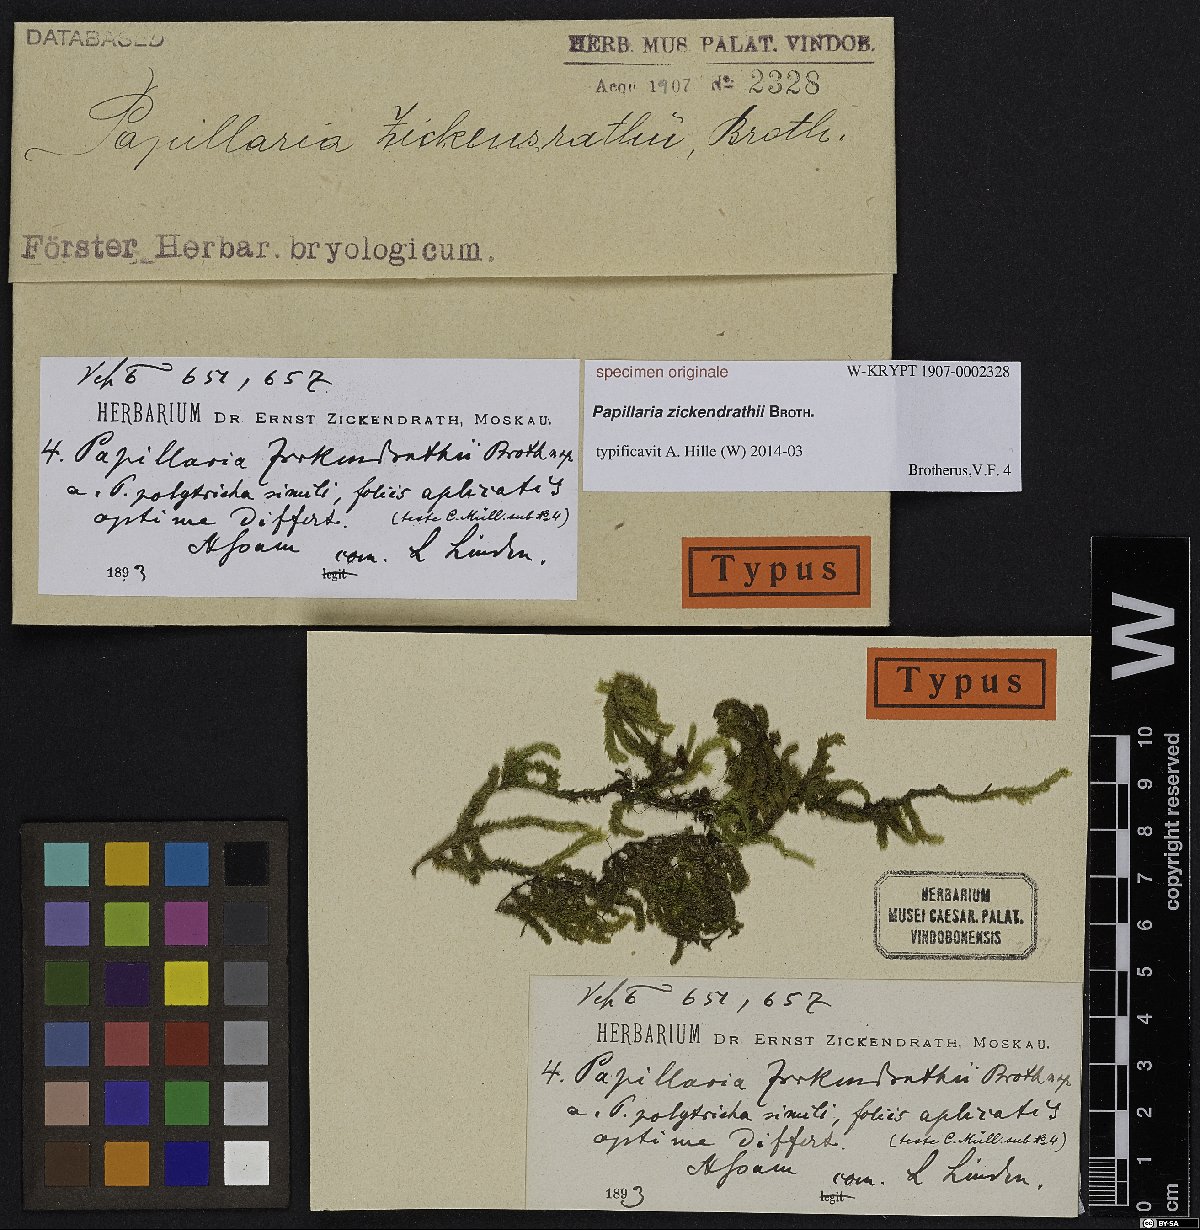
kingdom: Plantae
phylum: Bryophyta
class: Bryopsida
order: Hypnales
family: Meteoriaceae
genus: Papillaria
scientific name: Papillaria
